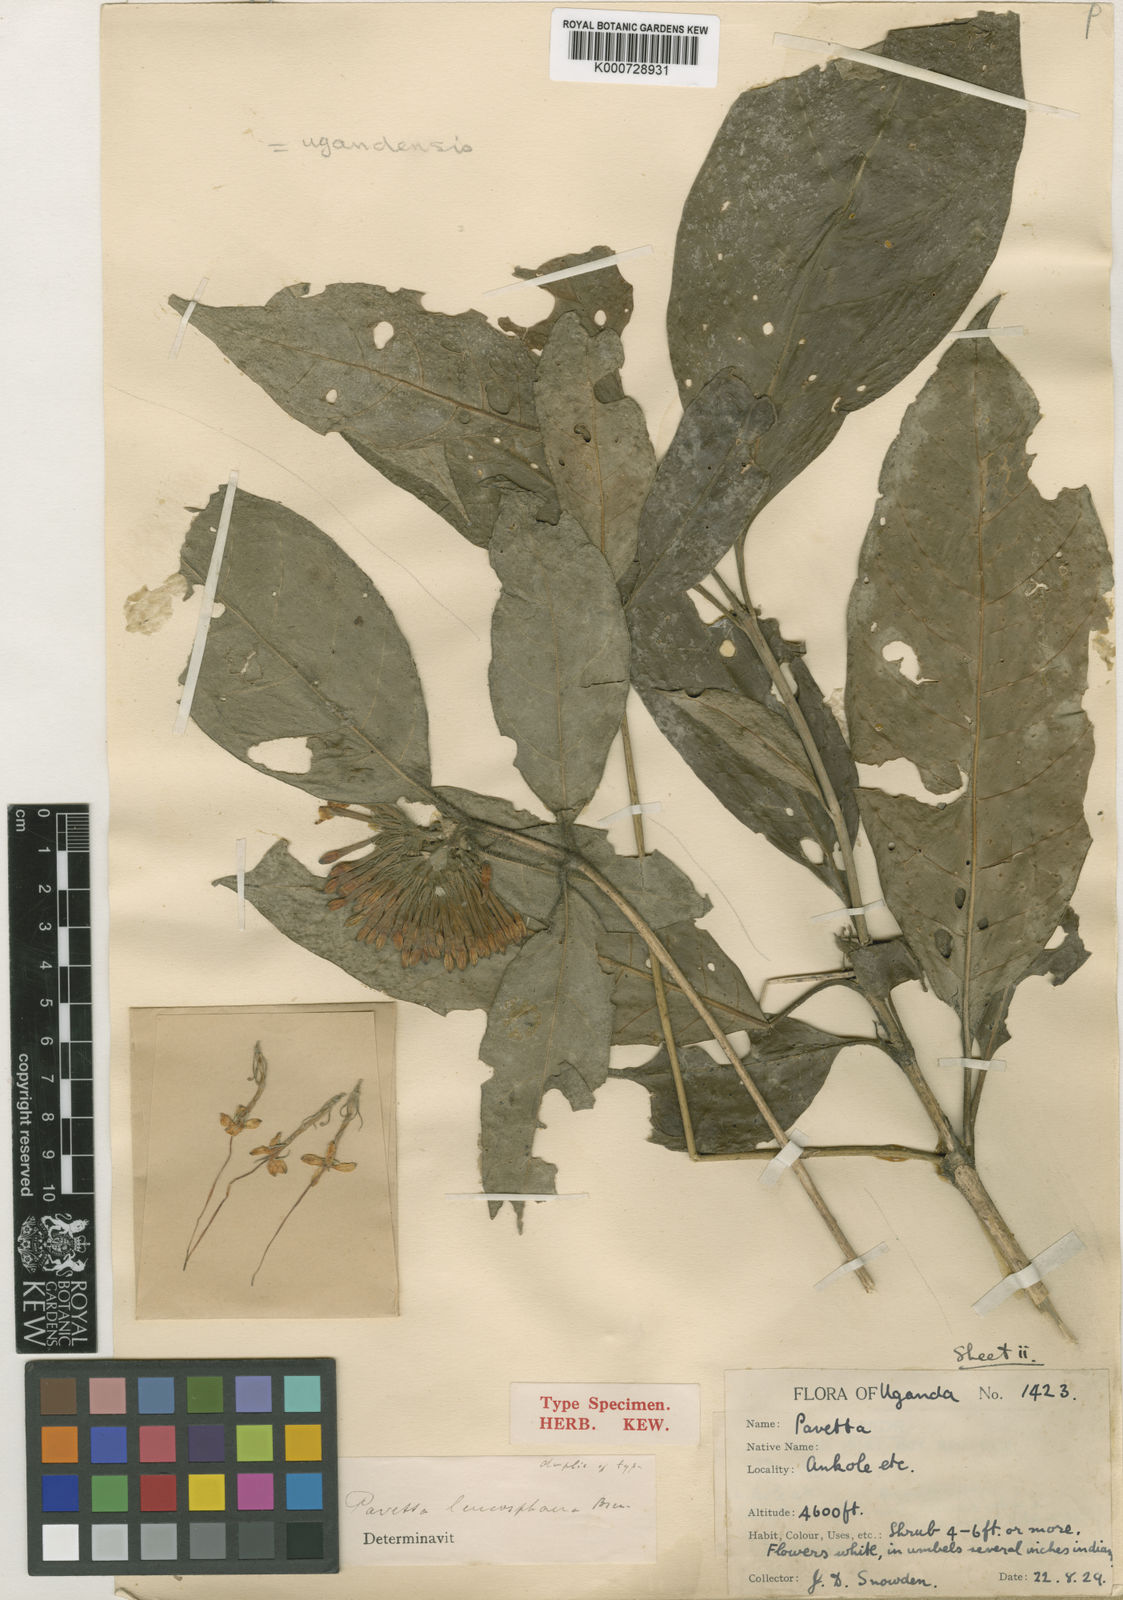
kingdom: Plantae
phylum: Tracheophyta
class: Magnoliopsida
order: Gentianales
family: Rubiaceae
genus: Pavetta
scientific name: Pavetta bagshawei
